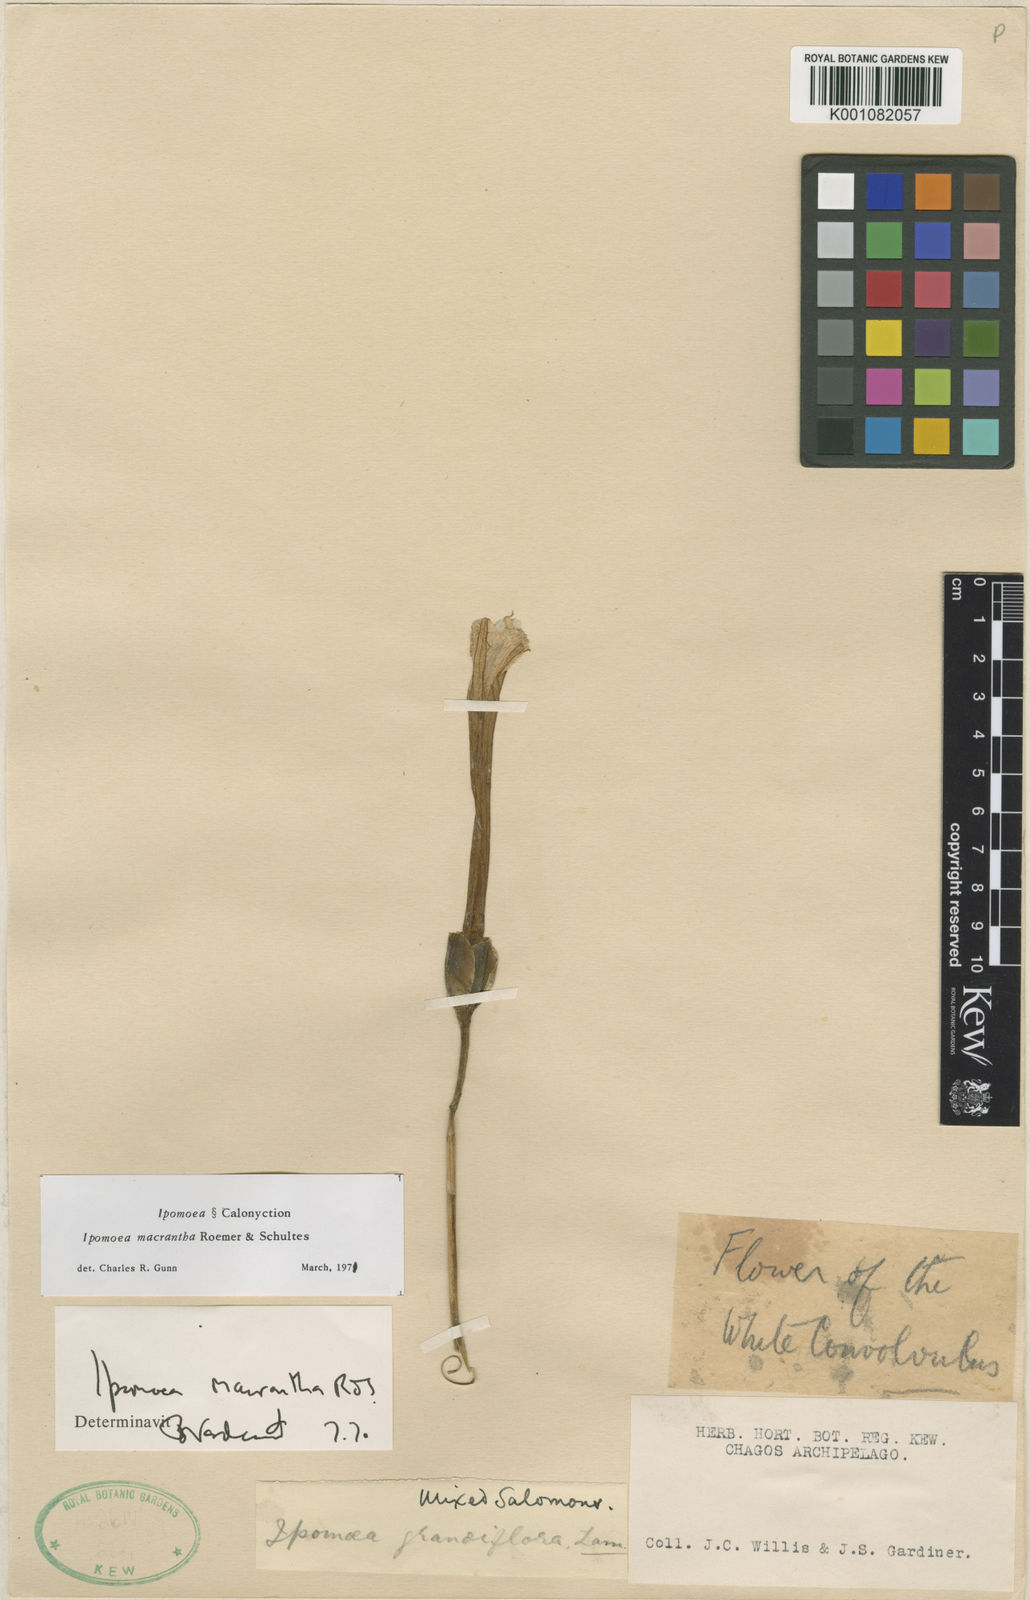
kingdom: Plantae
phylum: Tracheophyta
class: Magnoliopsida
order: Solanales
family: Convolvulaceae
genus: Ipomoea
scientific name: Ipomoea violacea
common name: Beach moonflower
